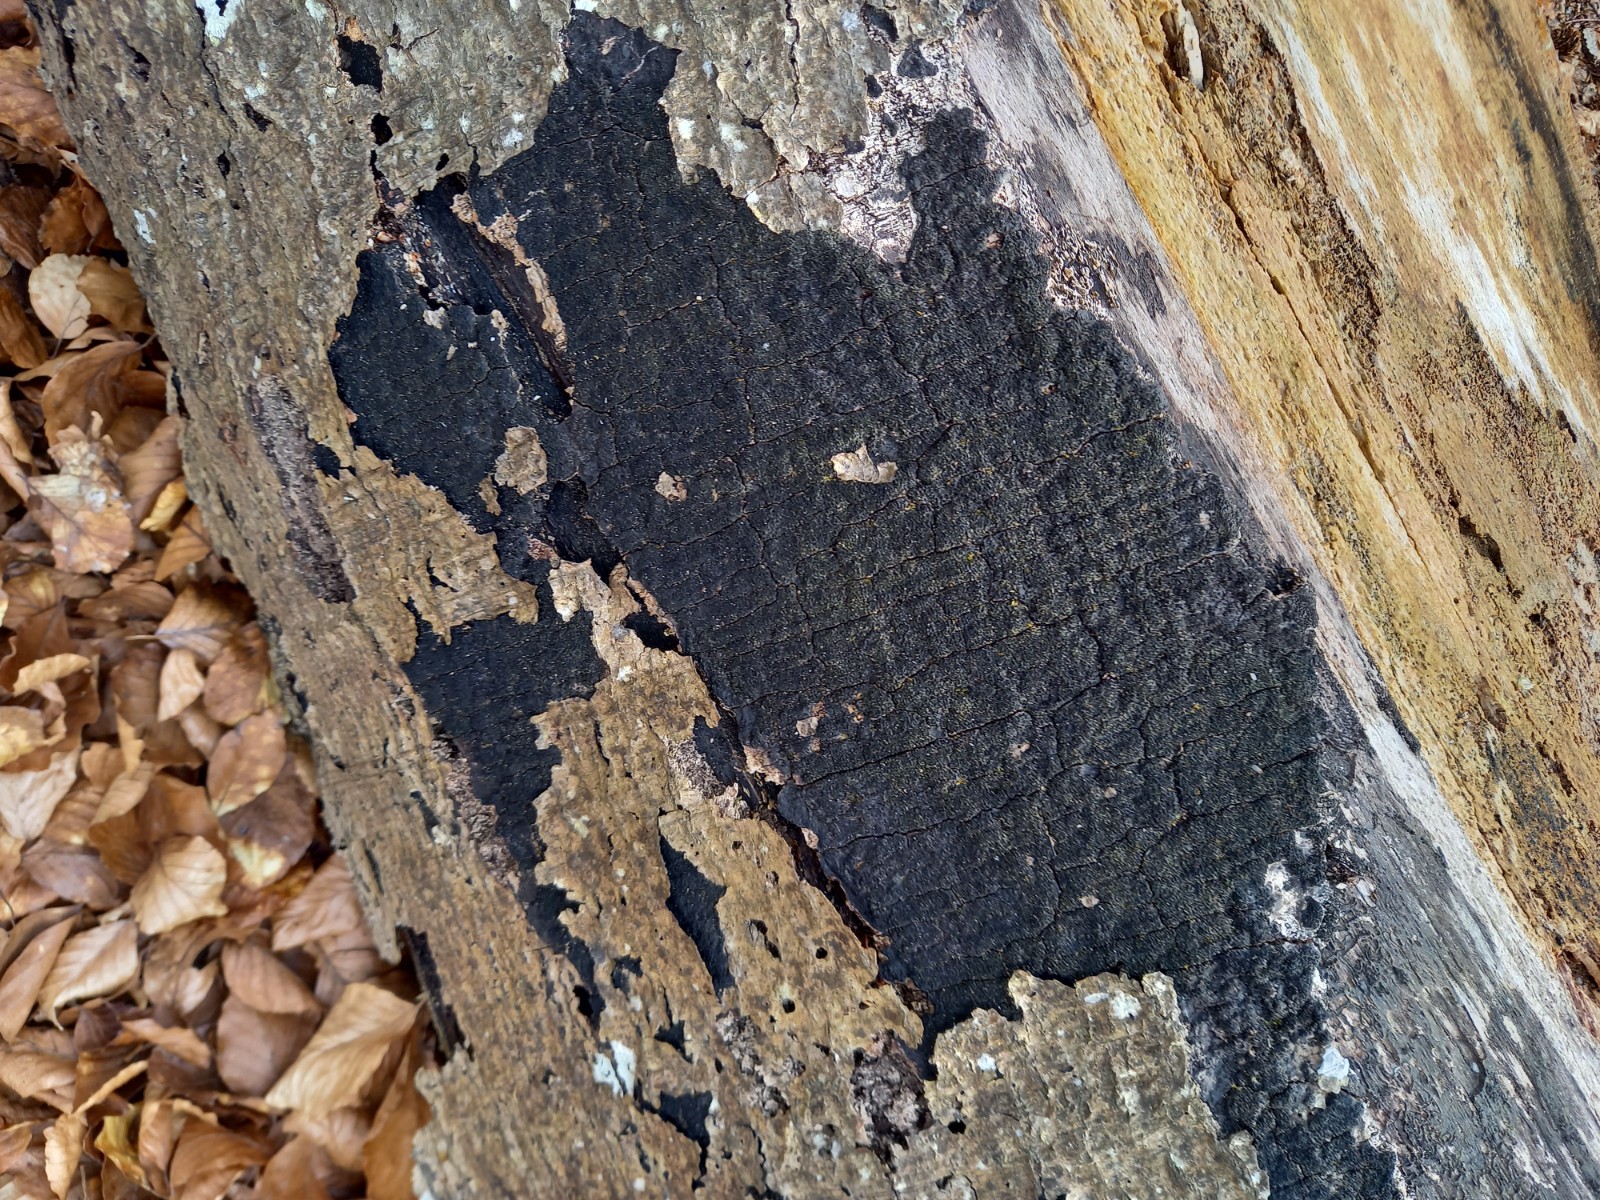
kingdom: Fungi
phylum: Ascomycota
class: Sordariomycetes
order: Xylariales
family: Diatrypaceae
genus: Eutypa
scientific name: Eutypa spinosa
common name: grov kulskorpe
